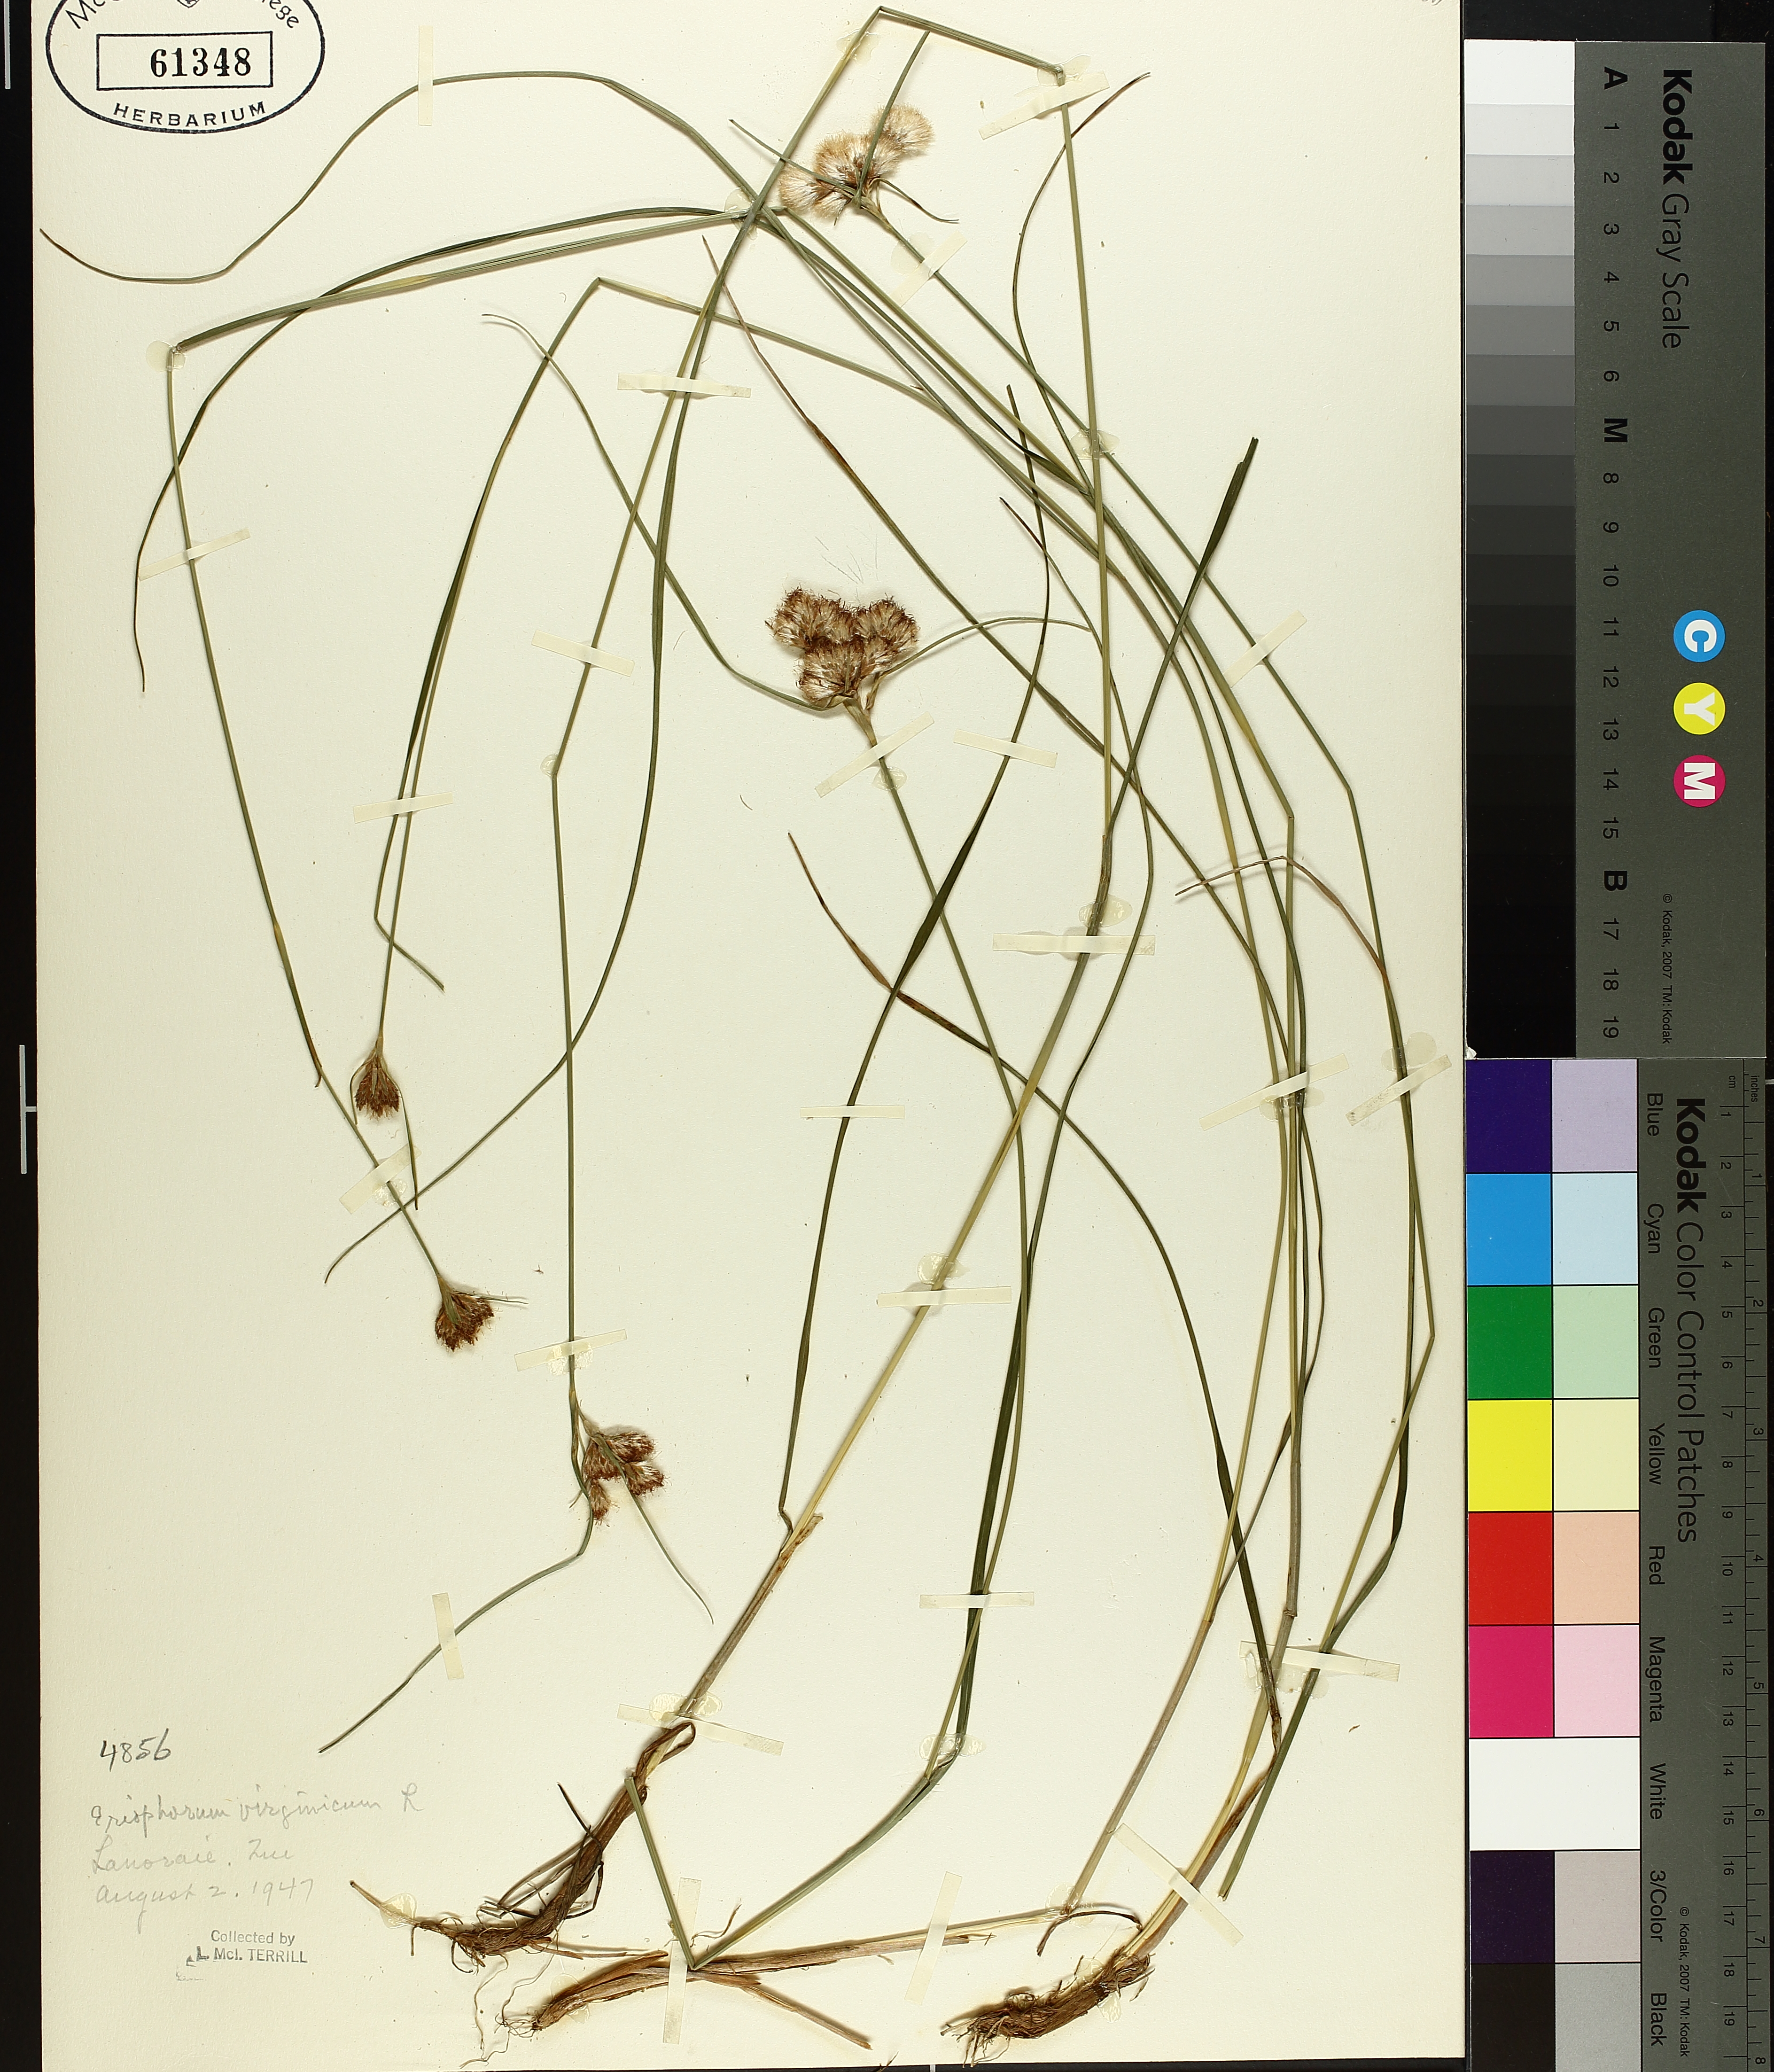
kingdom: Plantae
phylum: Tracheophyta
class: Liliopsida
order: Poales
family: Cyperaceae
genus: Eriophorum
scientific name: Eriophorum virginicum
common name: Tawny cottongrass
